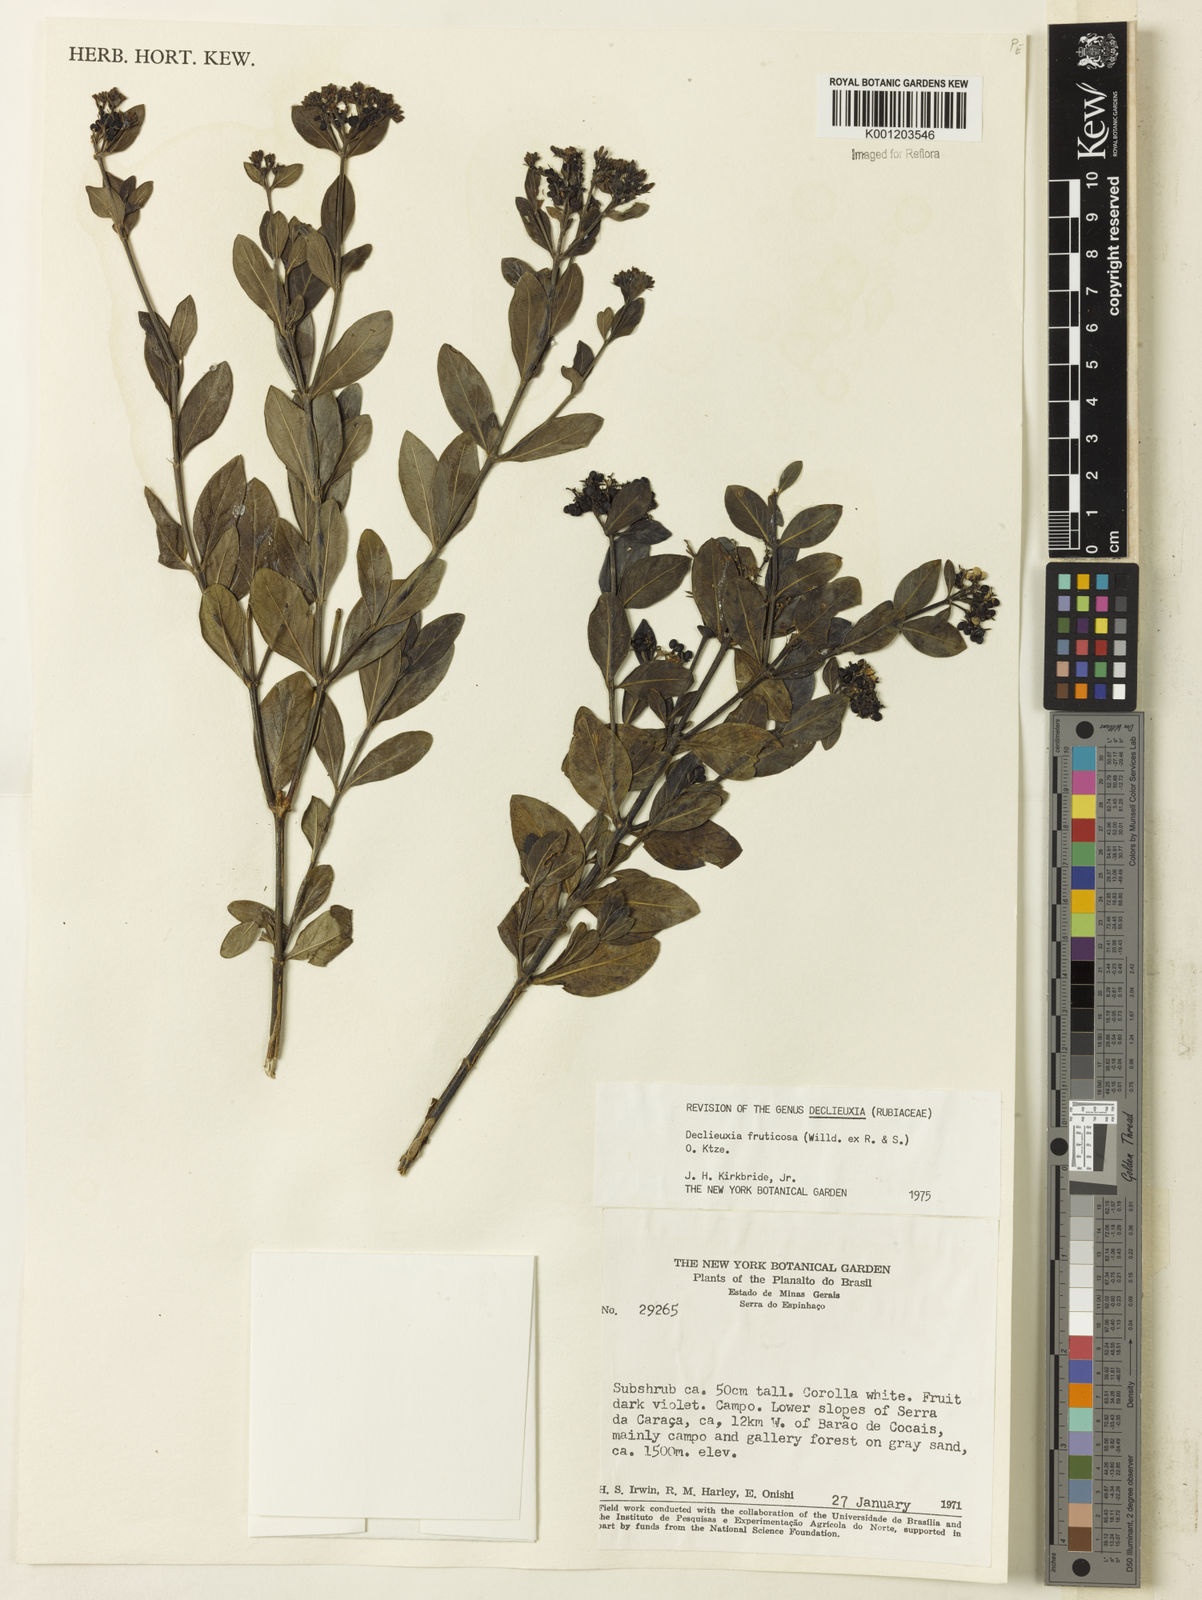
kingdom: Plantae
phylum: Tracheophyta
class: Magnoliopsida
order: Gentianales
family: Rubiaceae
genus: Declieuxia
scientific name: Declieuxia fruticosa
